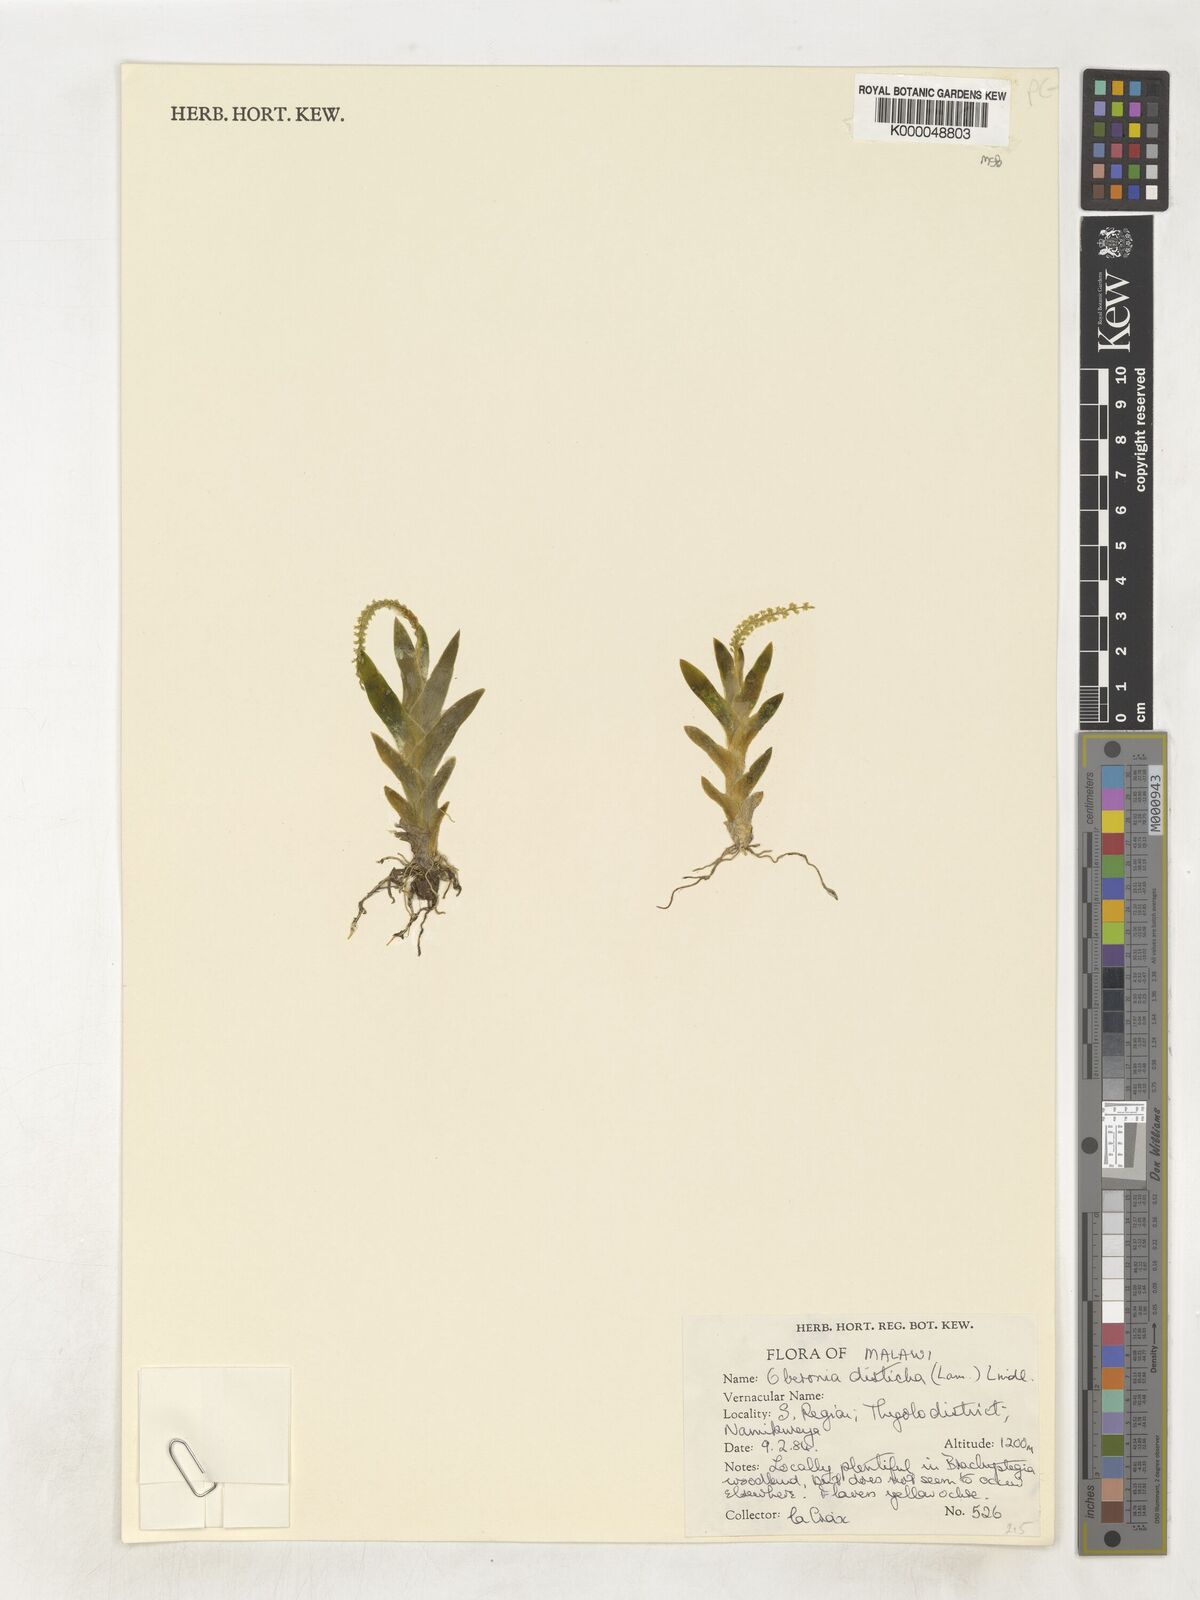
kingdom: Plantae
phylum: Tracheophyta
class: Liliopsida
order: Asparagales
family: Orchidaceae
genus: Oberonia
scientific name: Oberonia disticha
